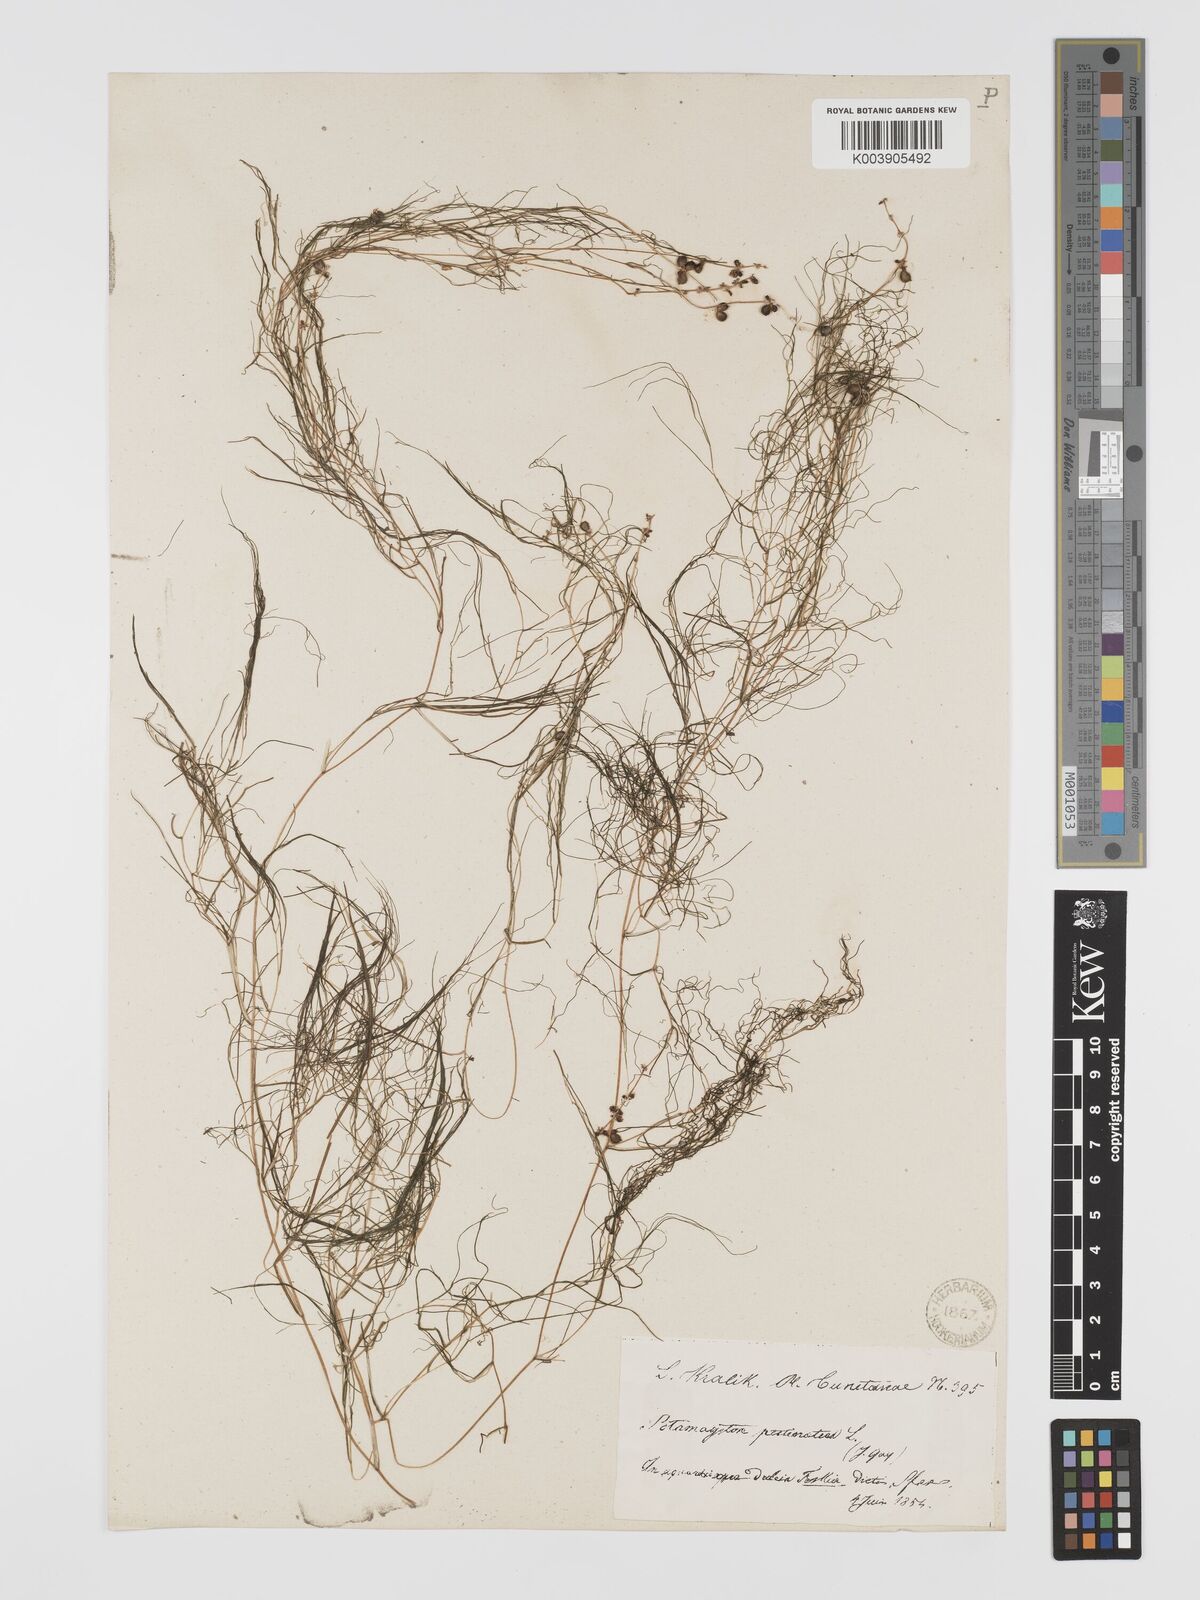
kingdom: Plantae
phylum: Tracheophyta
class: Liliopsida
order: Alismatales
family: Potamogetonaceae
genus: Stuckenia
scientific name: Stuckenia pectinata
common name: Sago pondweed
